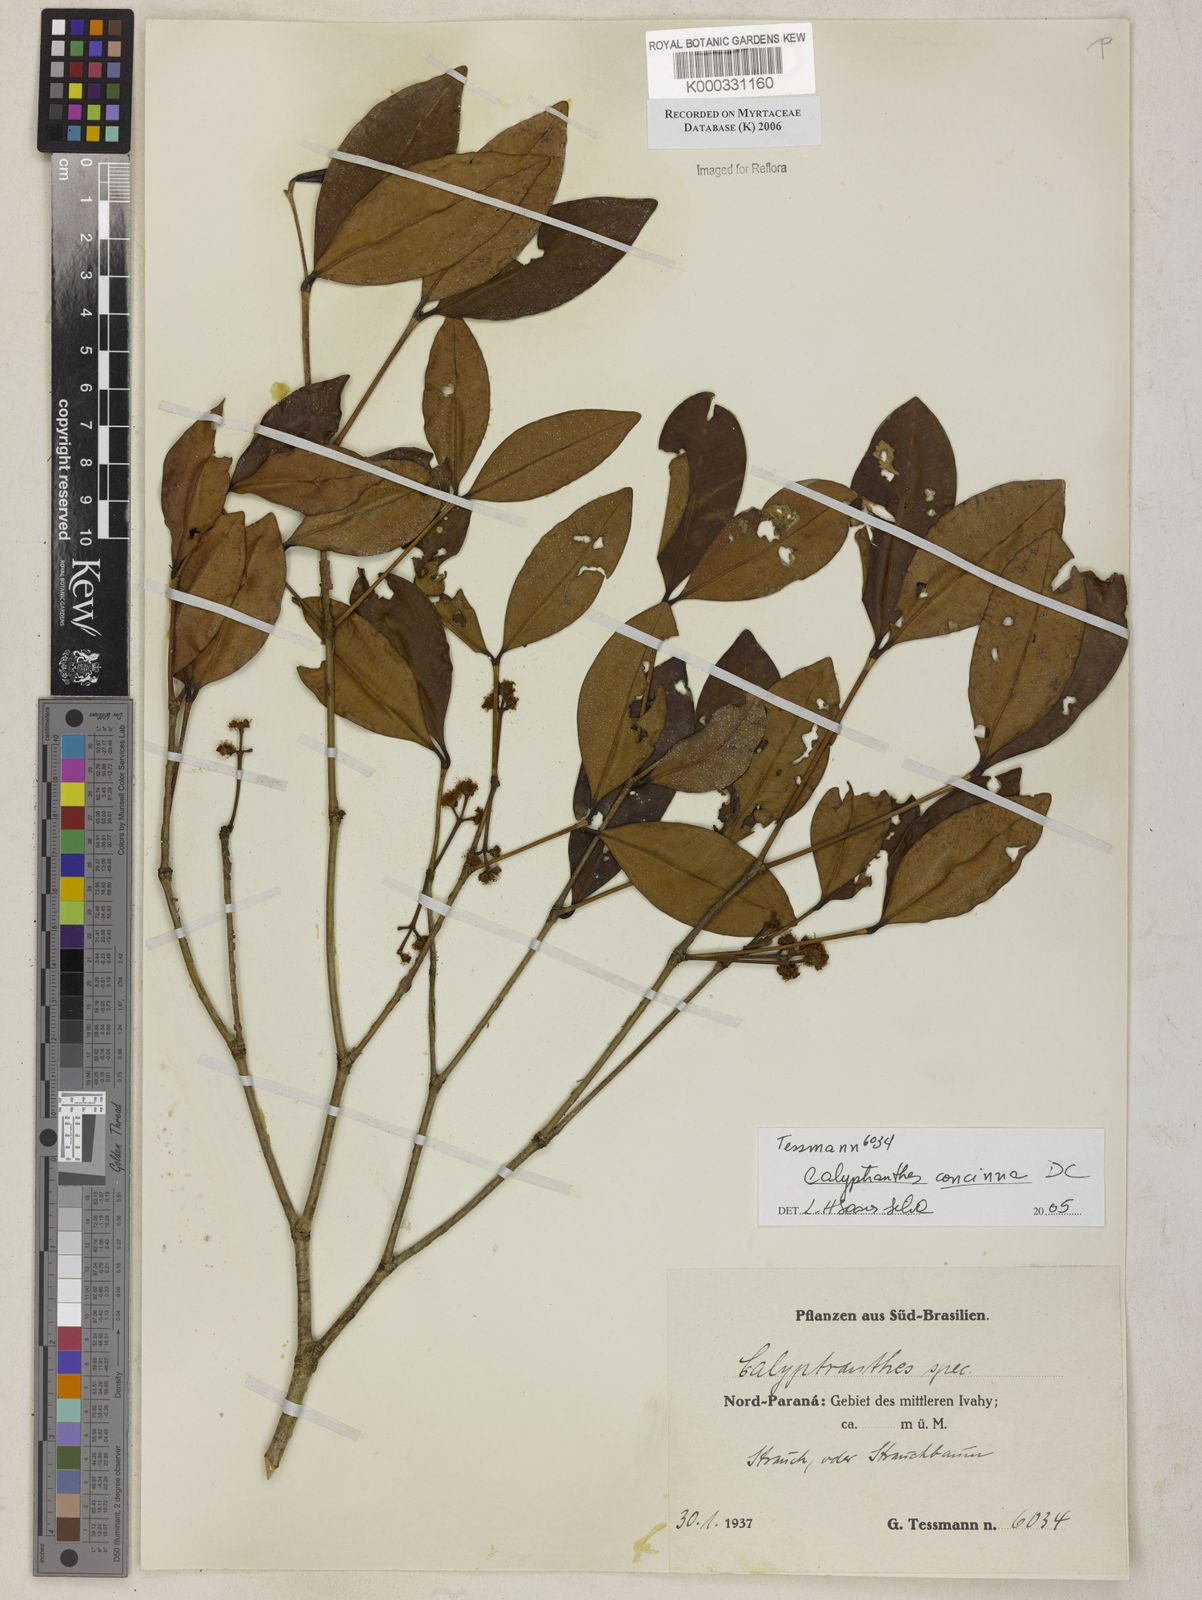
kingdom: Plantae
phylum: Tracheophyta
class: Magnoliopsida
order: Myrtales
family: Myrtaceae
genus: Myrcia
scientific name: Myrcia cruciflora
